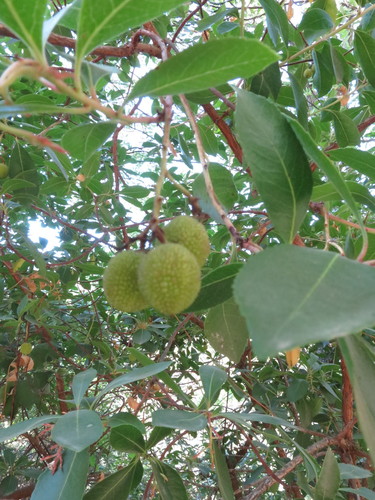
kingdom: Plantae
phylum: Tracheophyta
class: Magnoliopsida
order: Ericales
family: Ericaceae
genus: Arbutus
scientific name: Arbutus unedo
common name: Strawberry-tree
